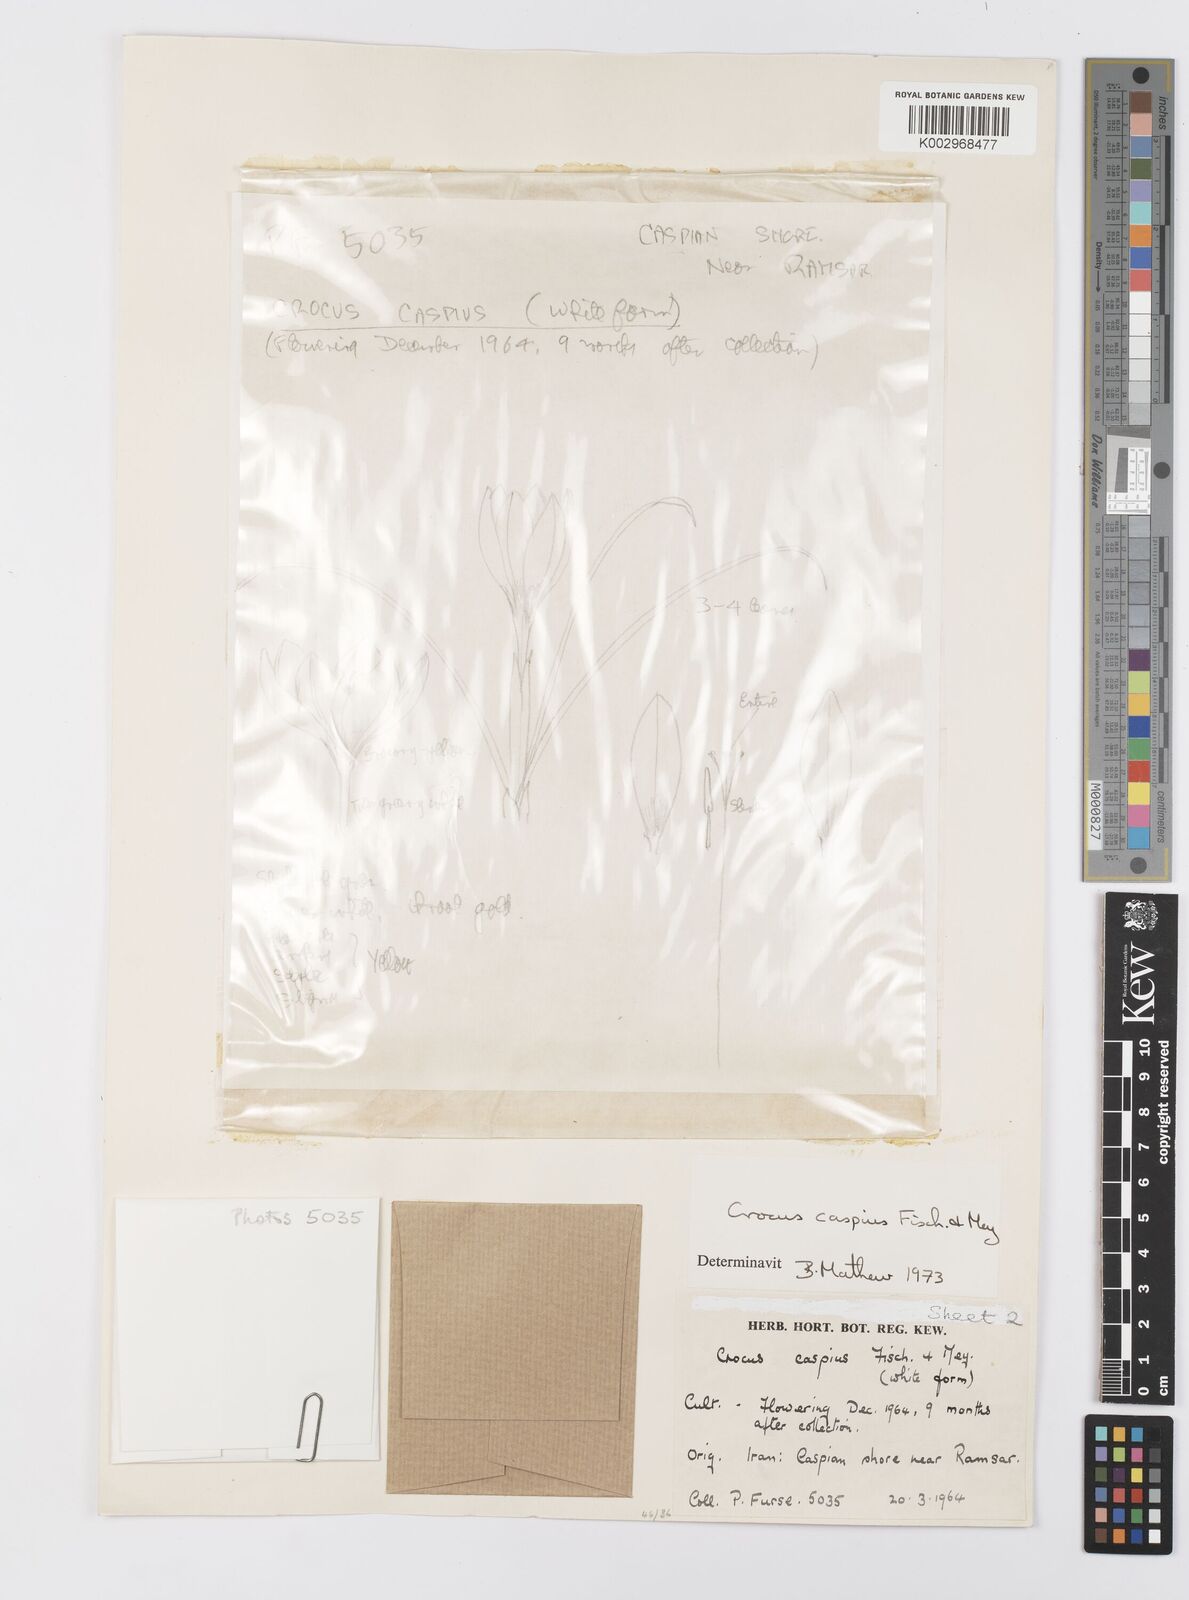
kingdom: Plantae
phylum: Tracheophyta
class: Liliopsida
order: Asparagales
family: Iridaceae
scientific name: Iridaceae
